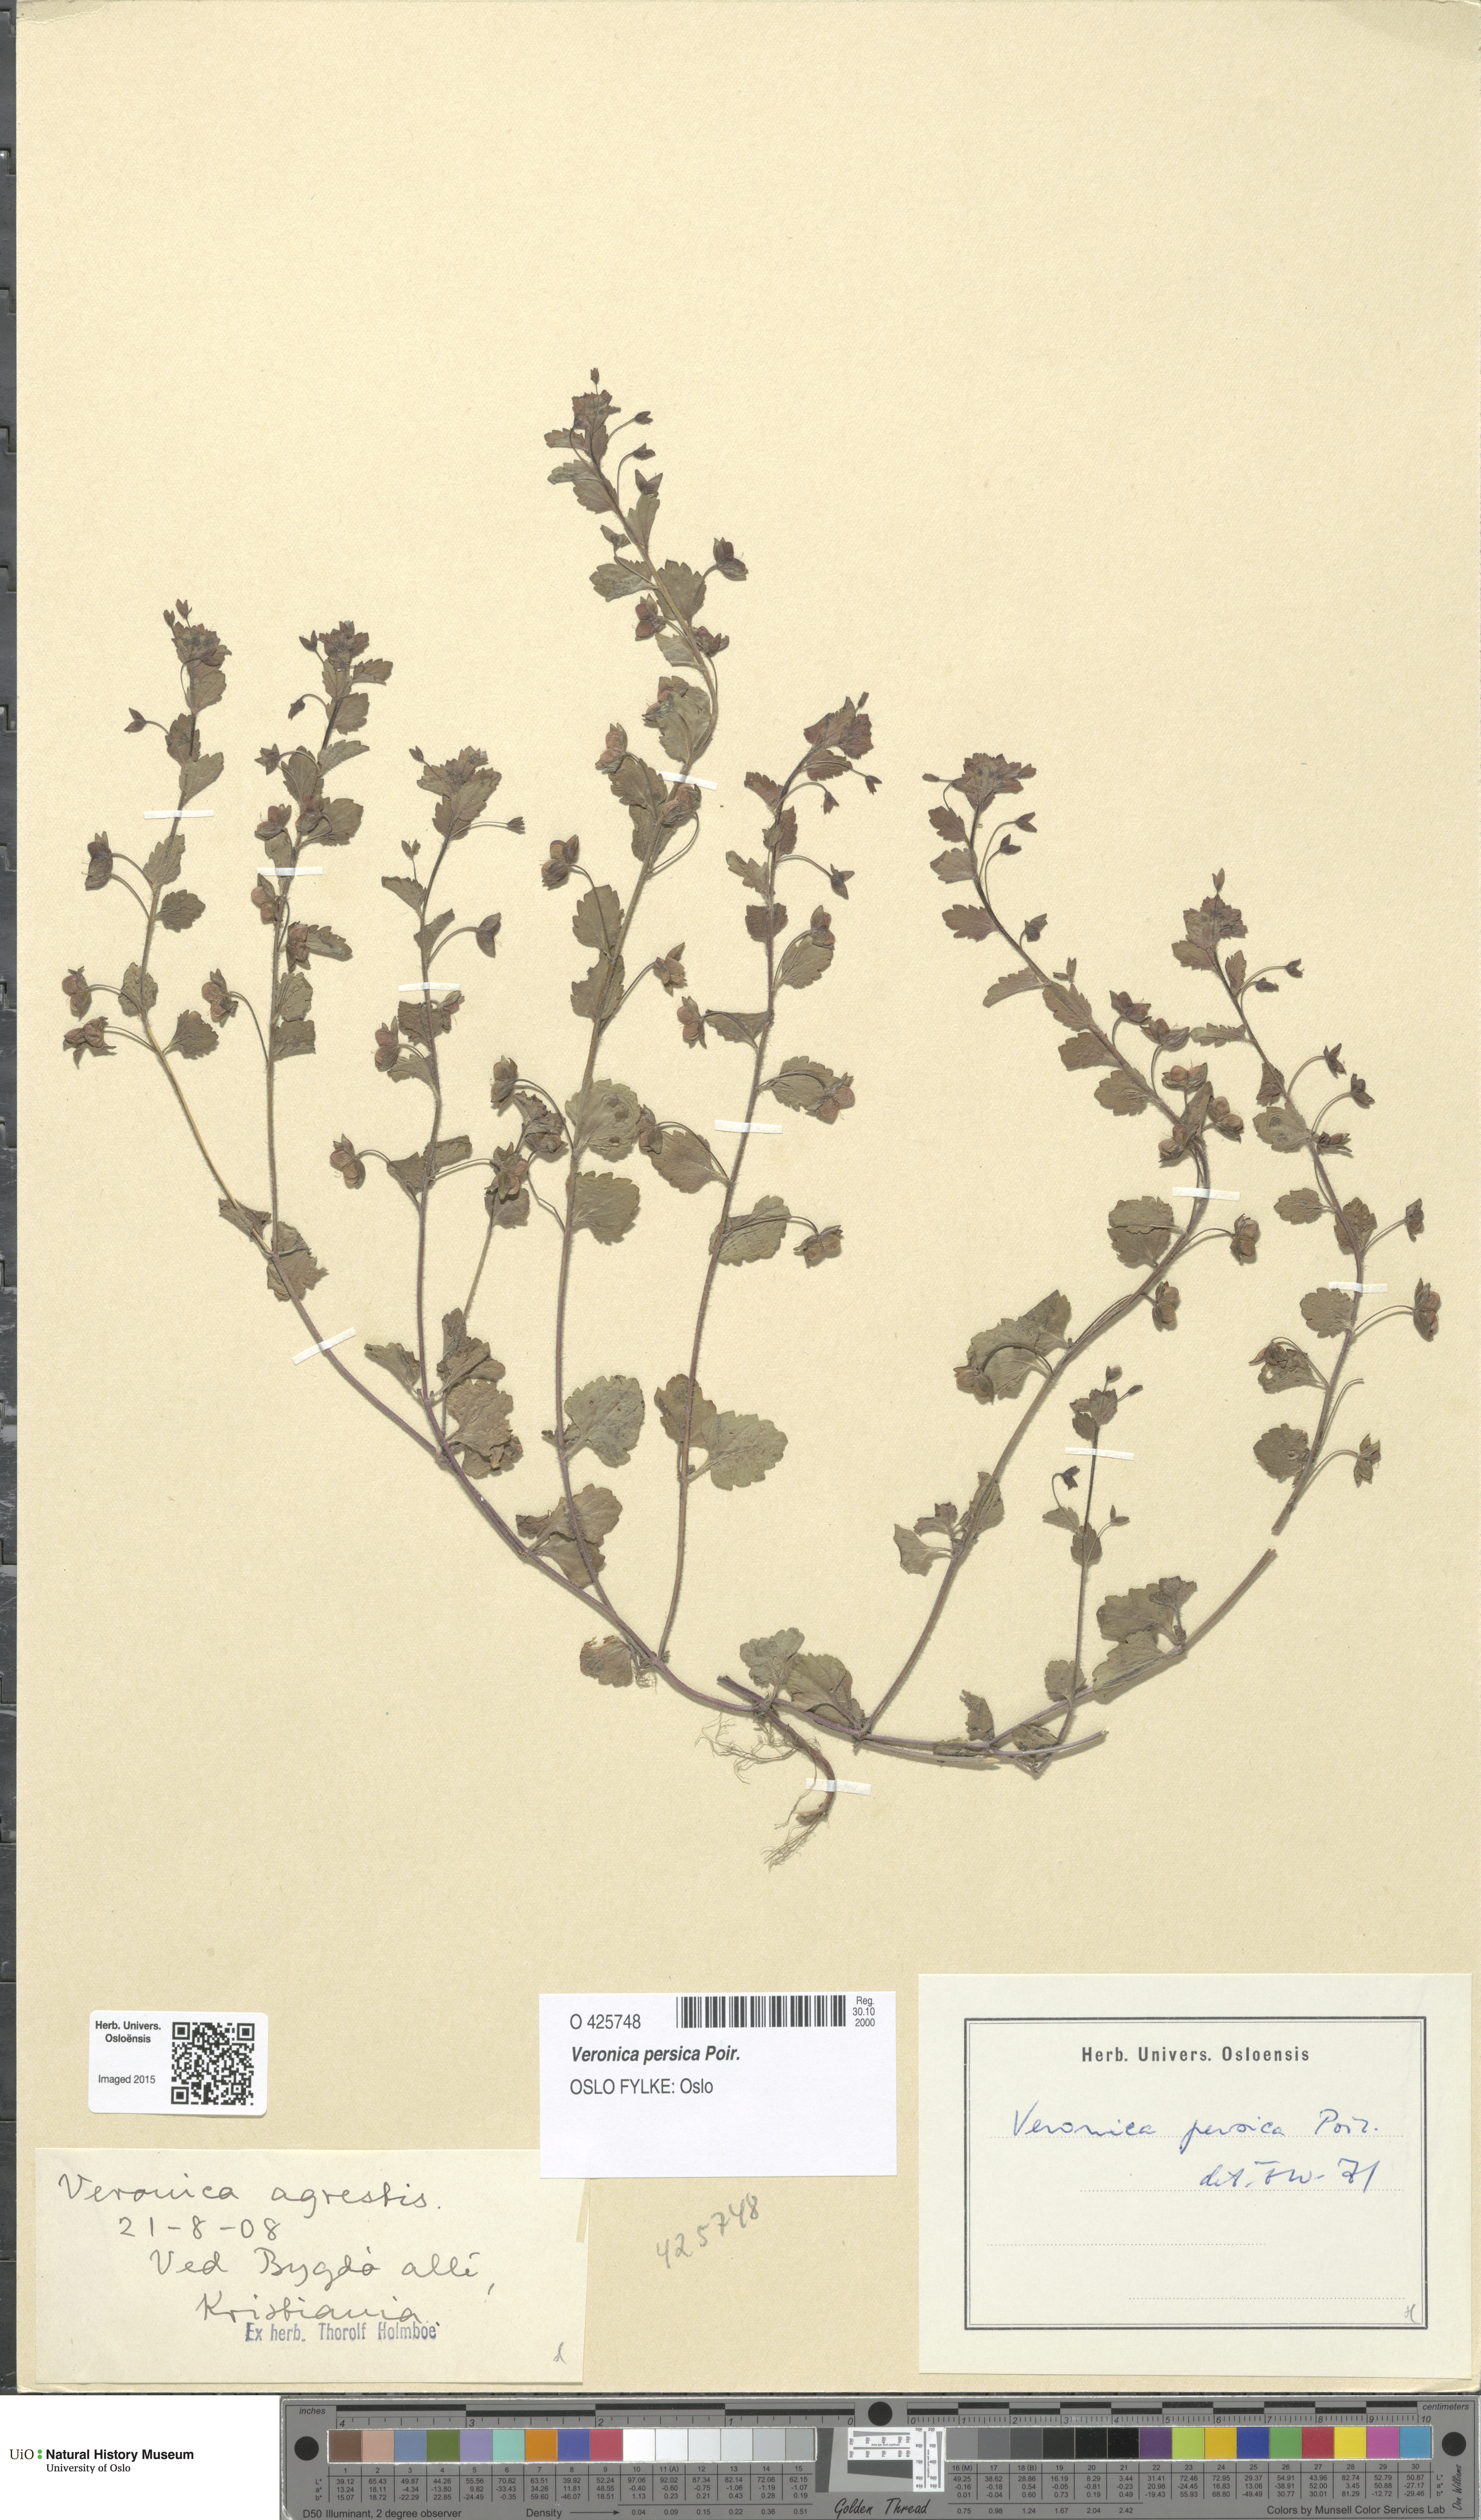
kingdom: Plantae
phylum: Tracheophyta
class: Magnoliopsida
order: Lamiales
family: Plantaginaceae
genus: Veronica
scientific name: Veronica persica
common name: Common field-speedwell
